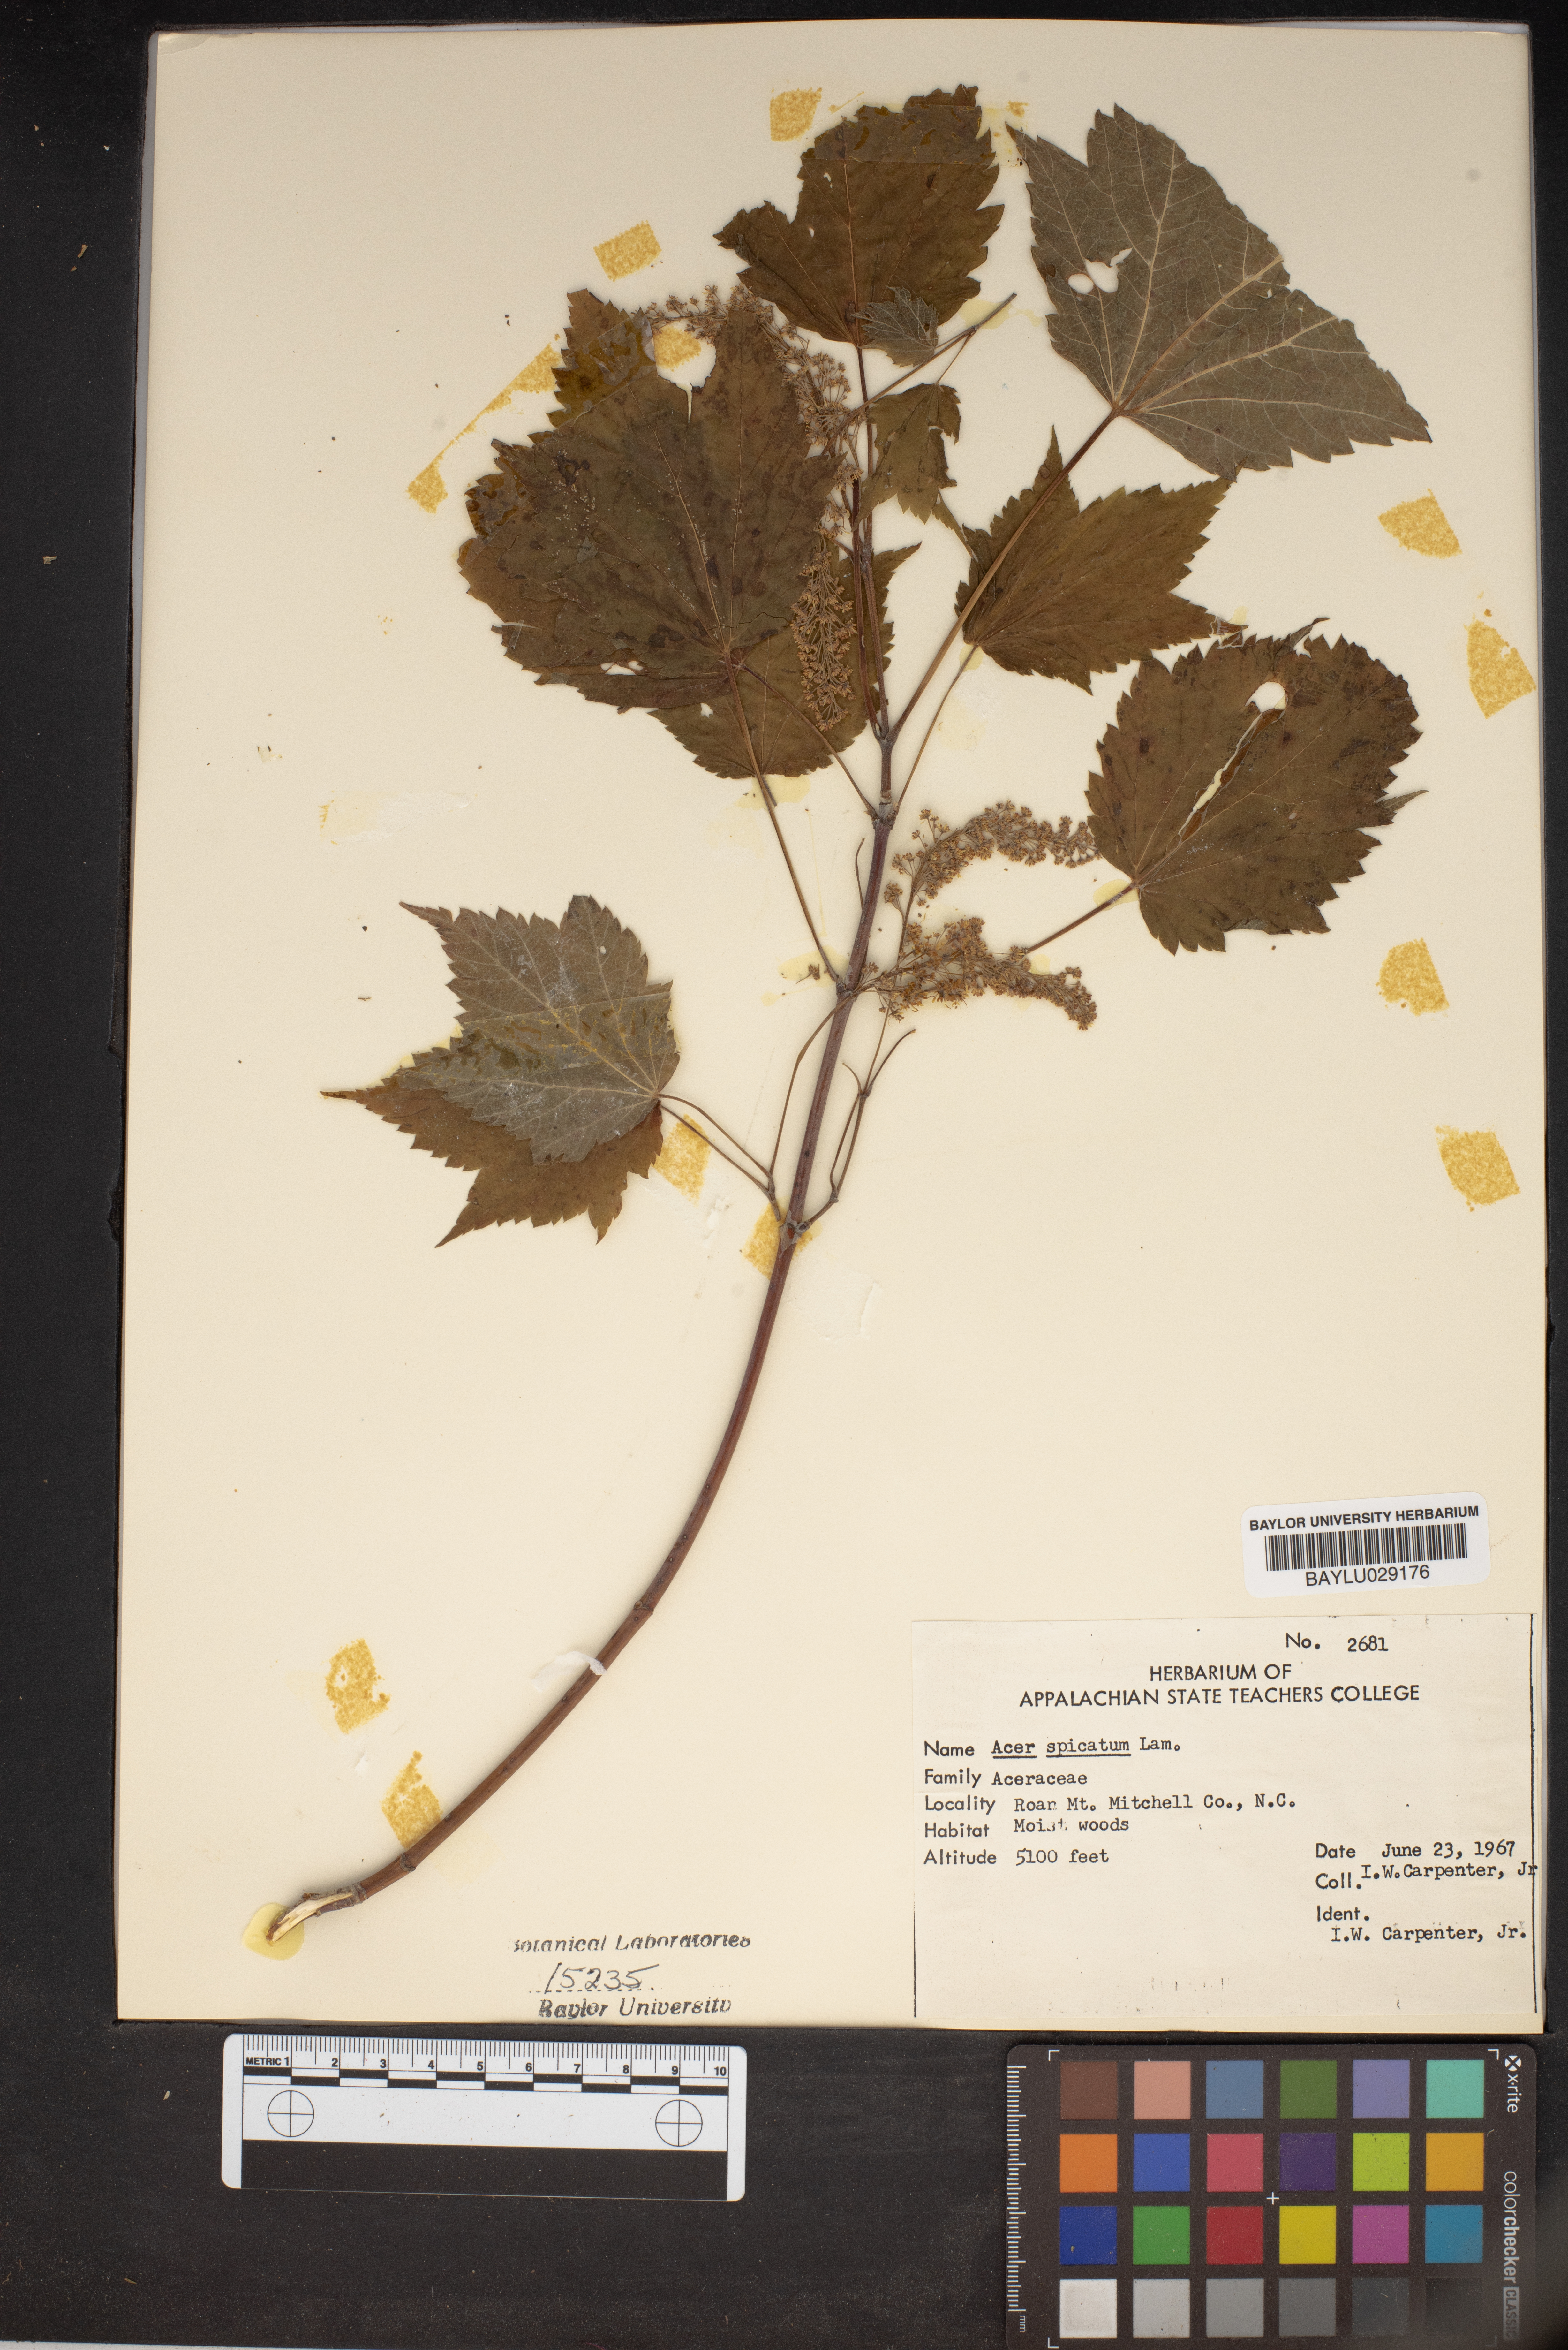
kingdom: Plantae
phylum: Tracheophyta
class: Magnoliopsida
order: Sapindales
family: Sapindaceae
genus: Acer
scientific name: Acer spicatum
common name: Mountain maple
